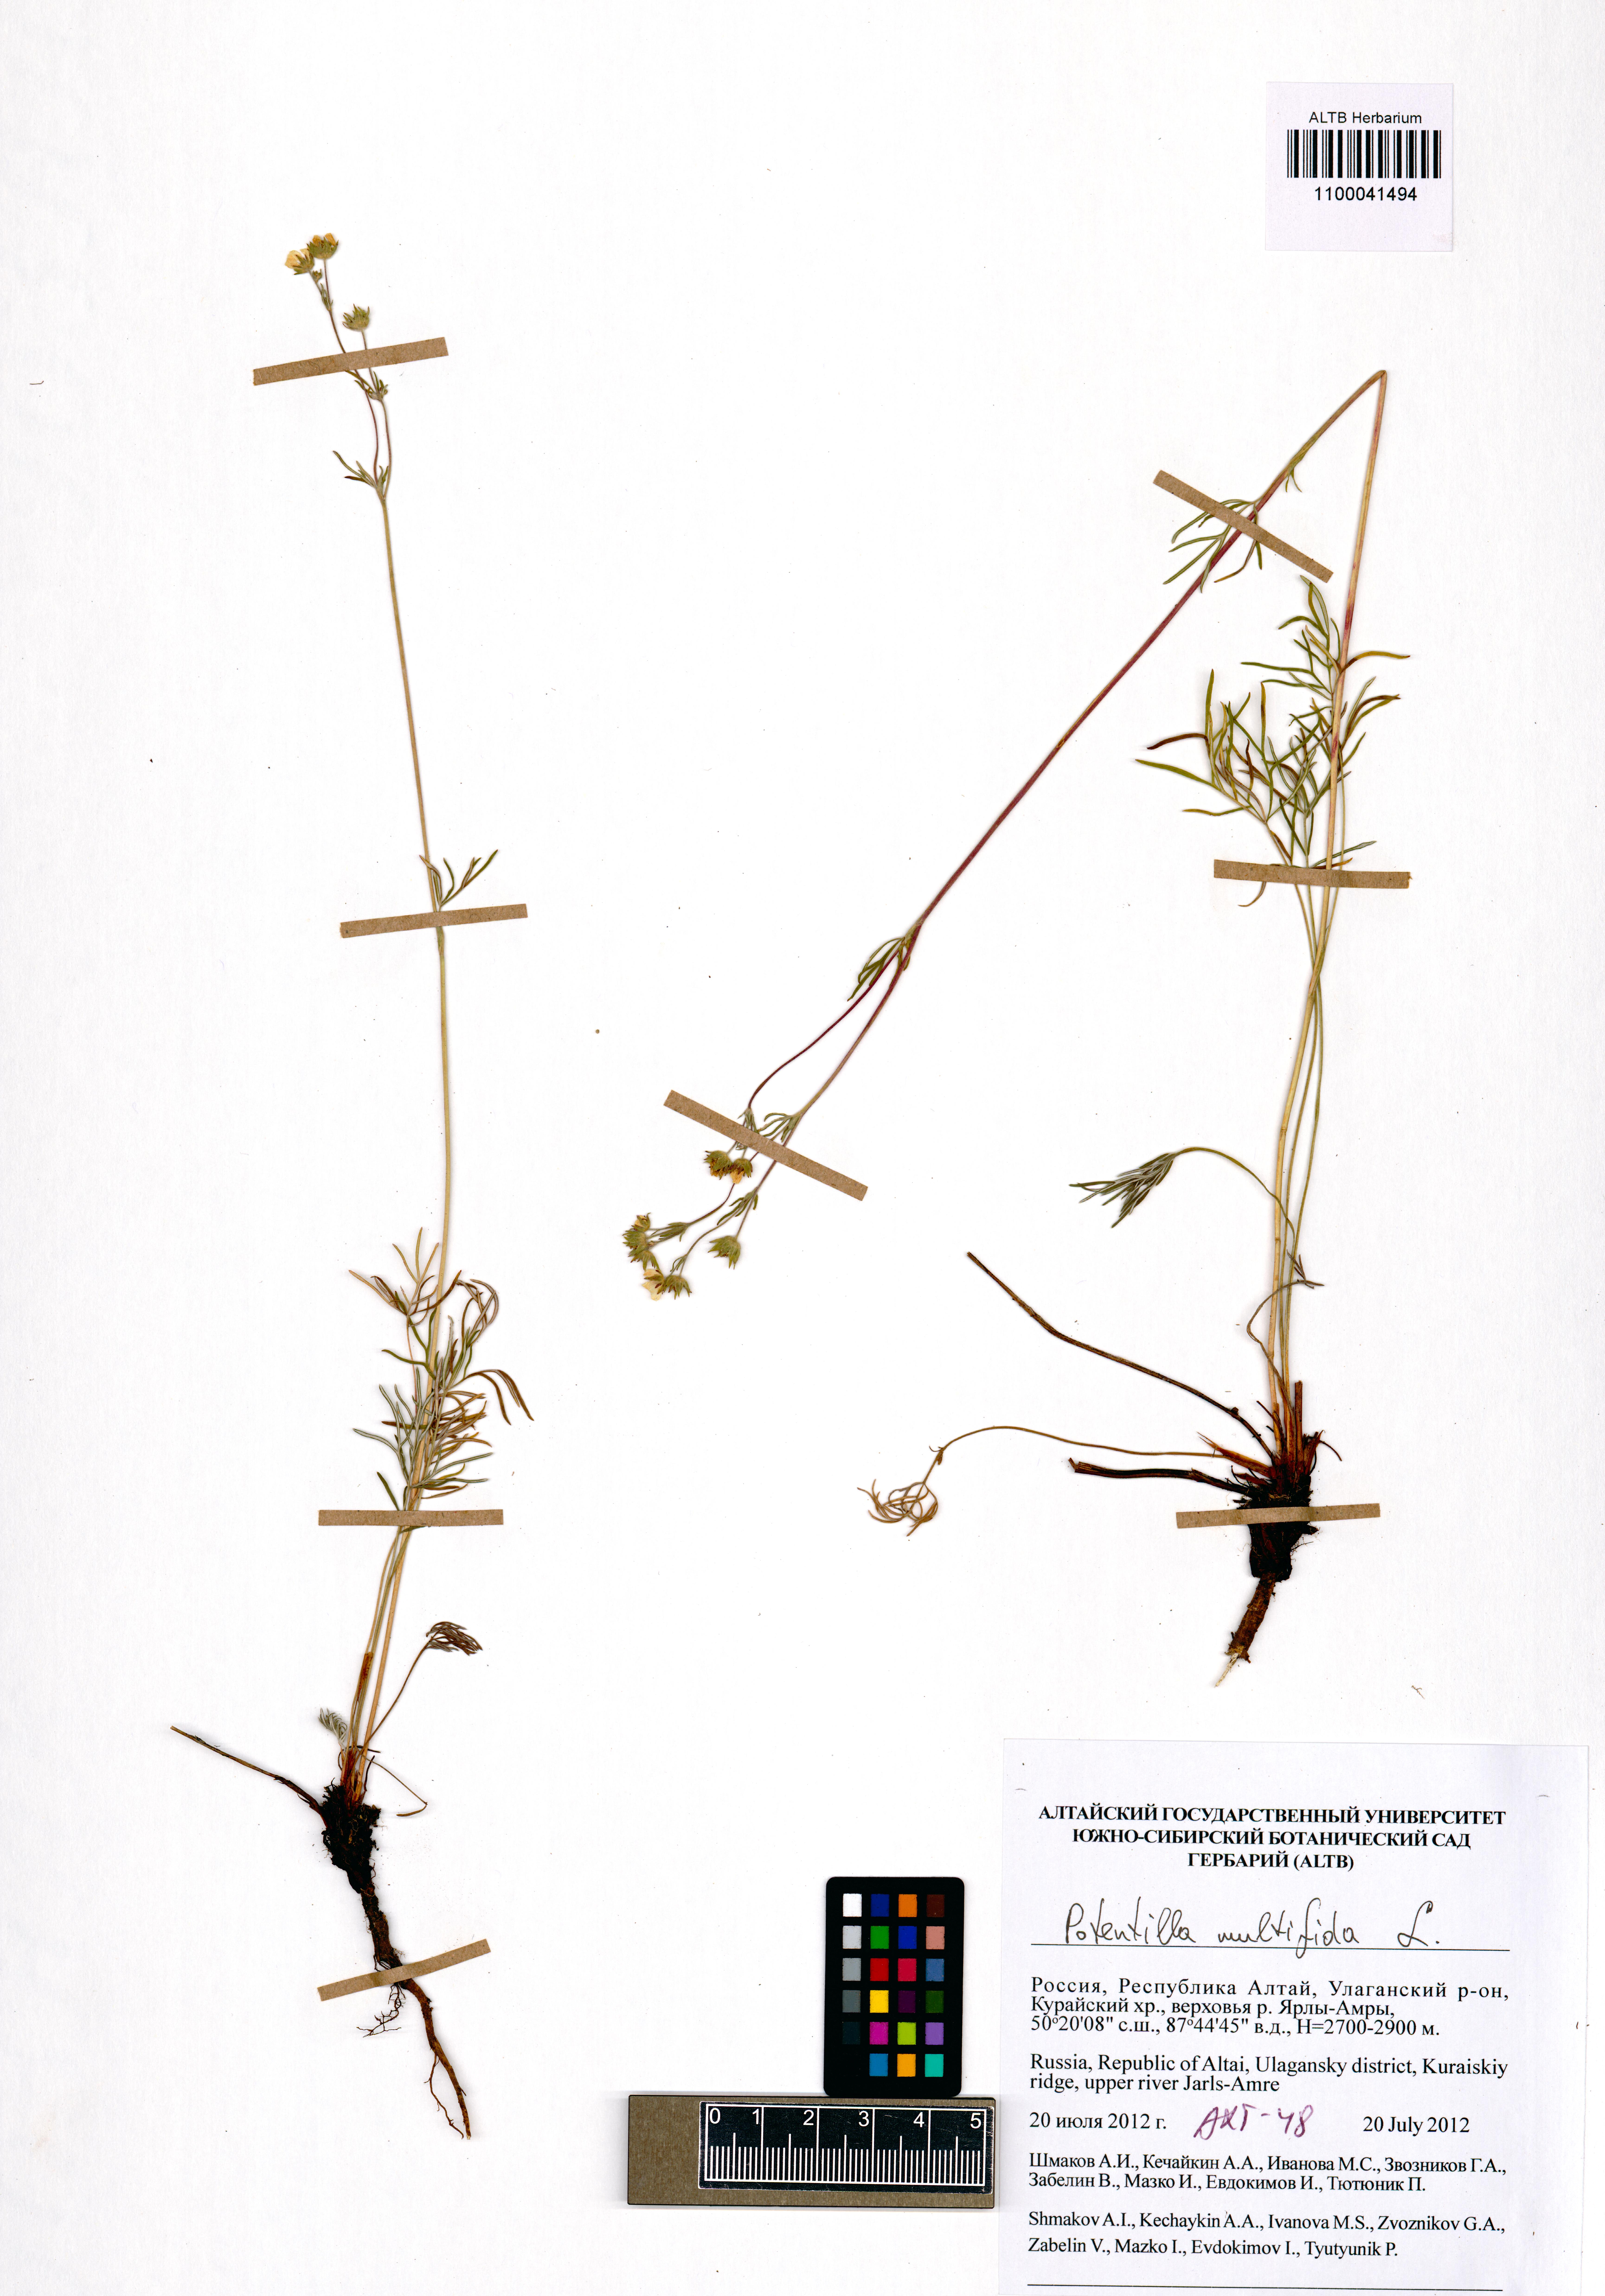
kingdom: Plantae
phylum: Tracheophyta
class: Magnoliopsida
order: Rosales
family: Rosaceae
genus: Potentilla
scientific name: Potentilla multifida
